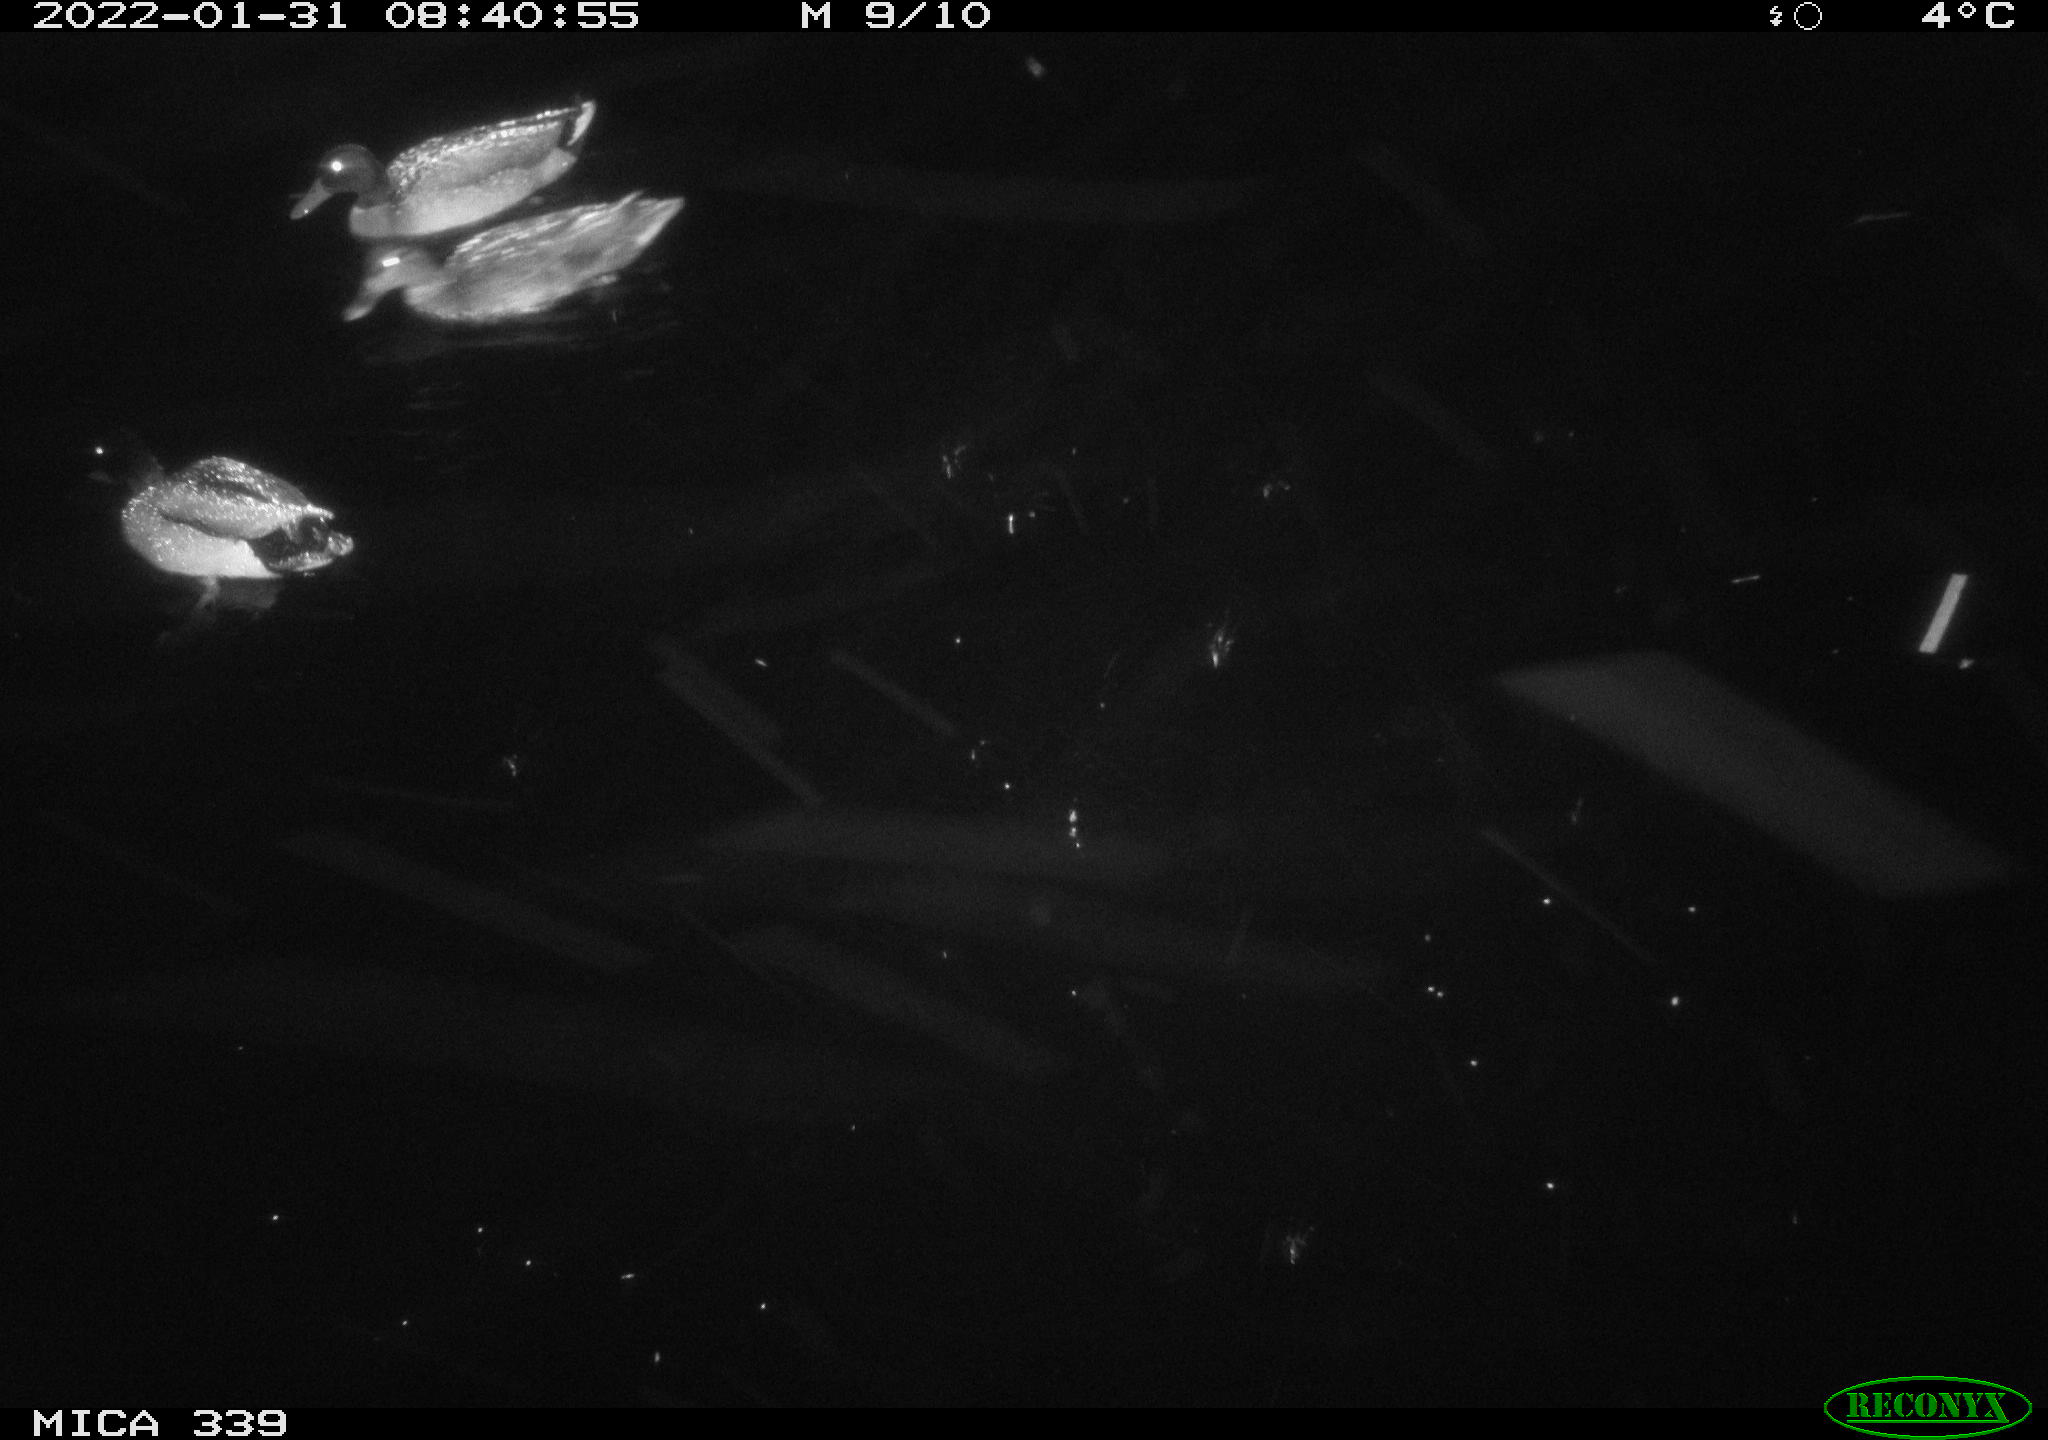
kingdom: Animalia
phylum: Chordata
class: Aves
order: Anseriformes
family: Anatidae
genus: Anas
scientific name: Anas platyrhynchos
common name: Mallard
